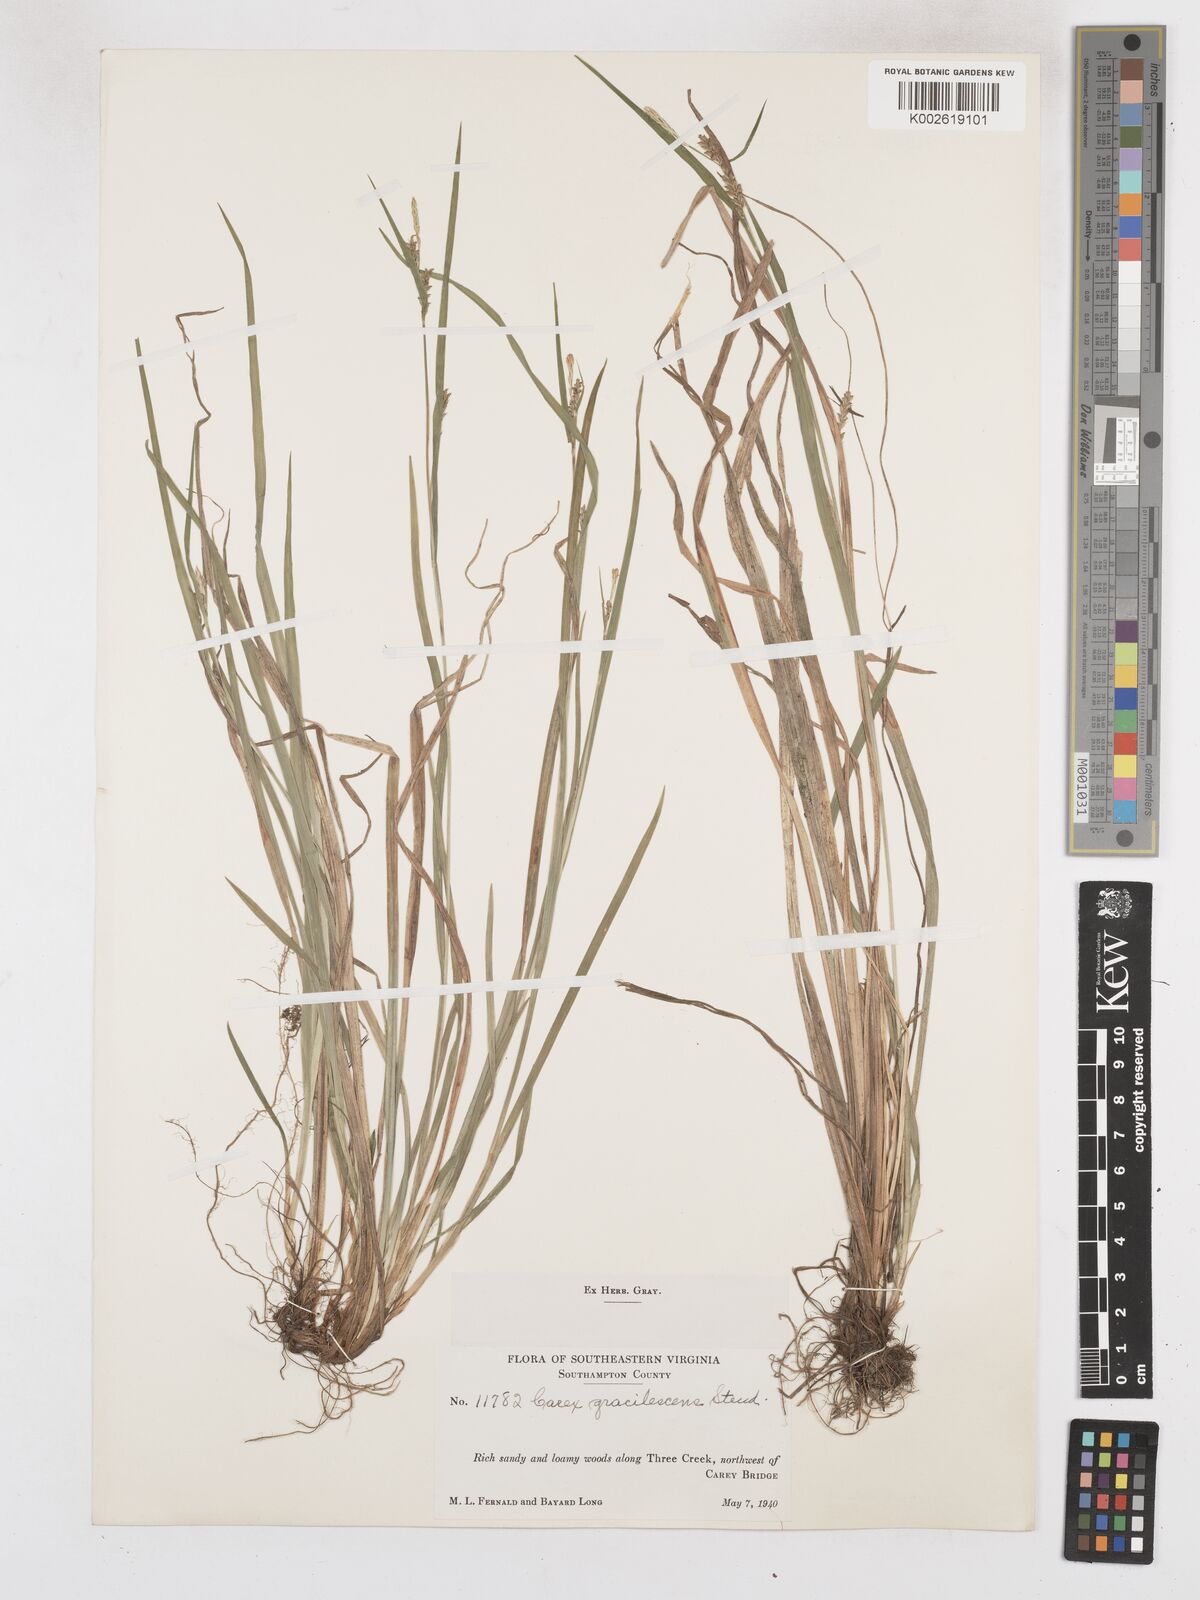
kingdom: Plantae
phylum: Tracheophyta
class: Liliopsida
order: Poales
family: Cyperaceae
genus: Carex
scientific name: Carex laxiflora
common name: Beech wood sedge
